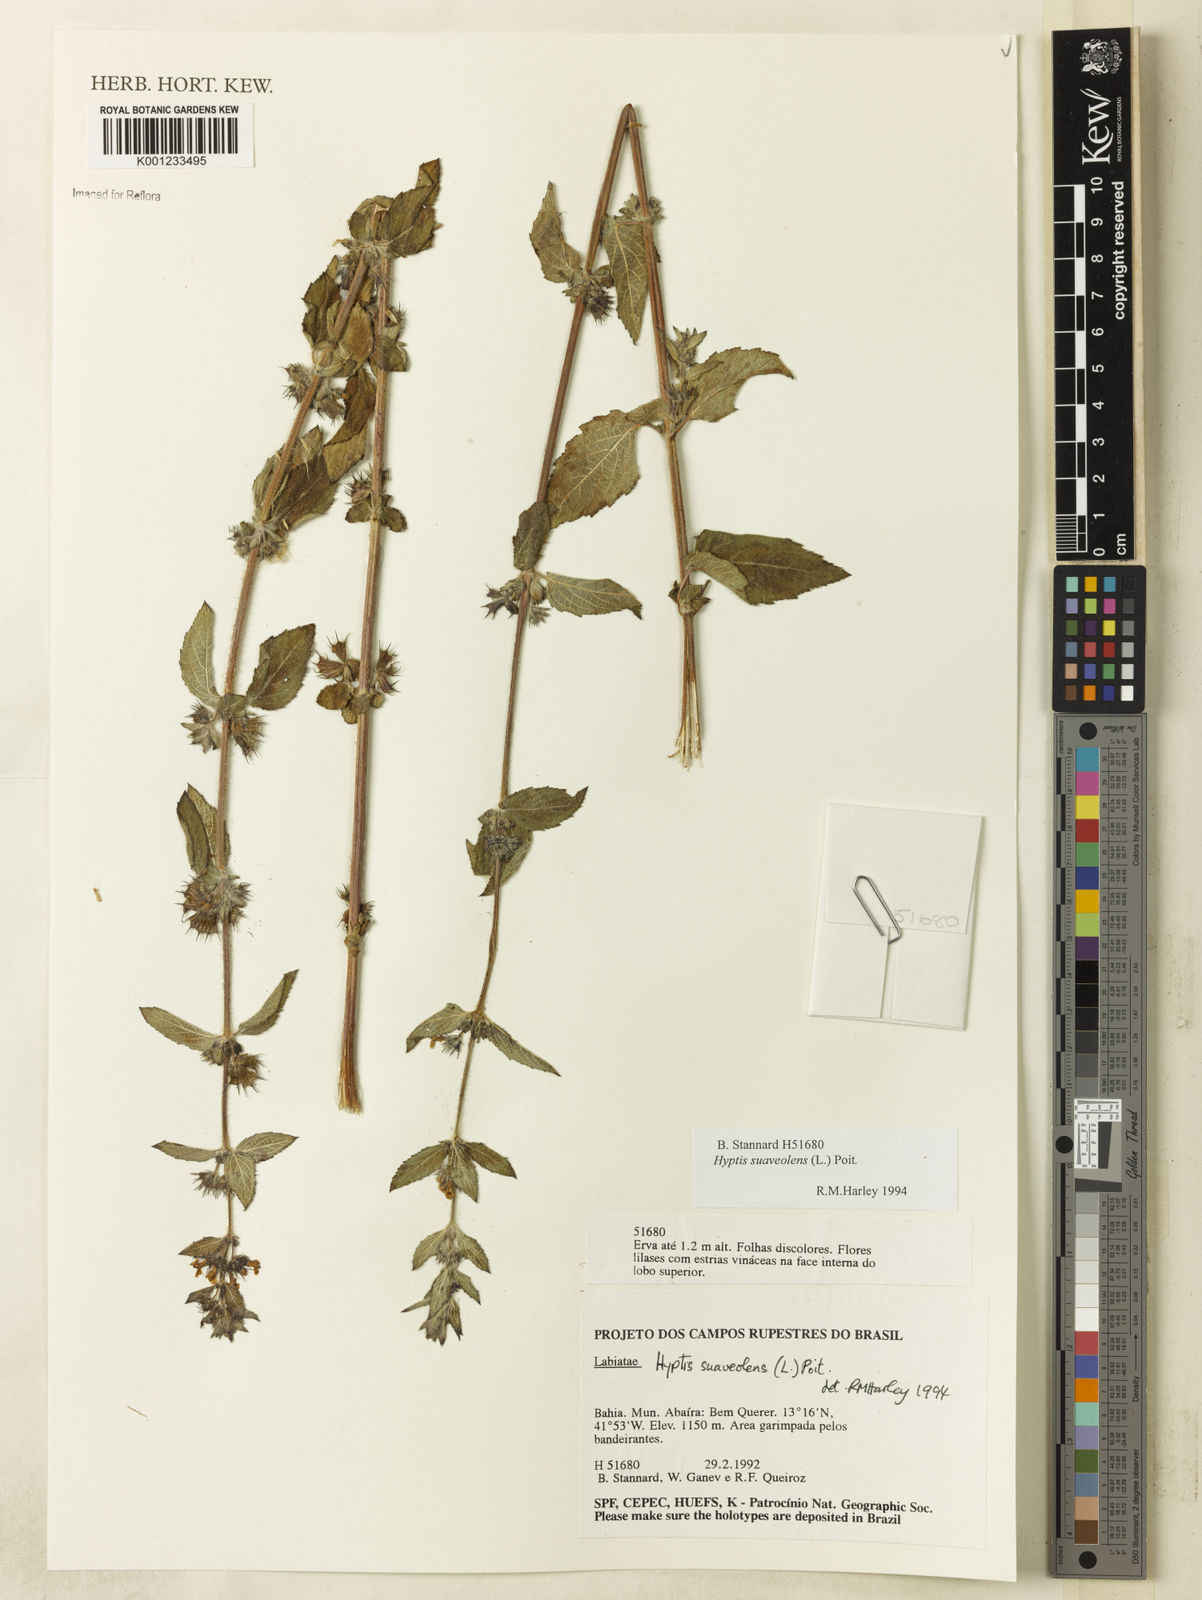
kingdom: Plantae
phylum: Tracheophyta
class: Magnoliopsida
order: Lamiales
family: Lamiaceae
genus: Mesosphaerum
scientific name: Mesosphaerum suaveolens
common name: Pignut
